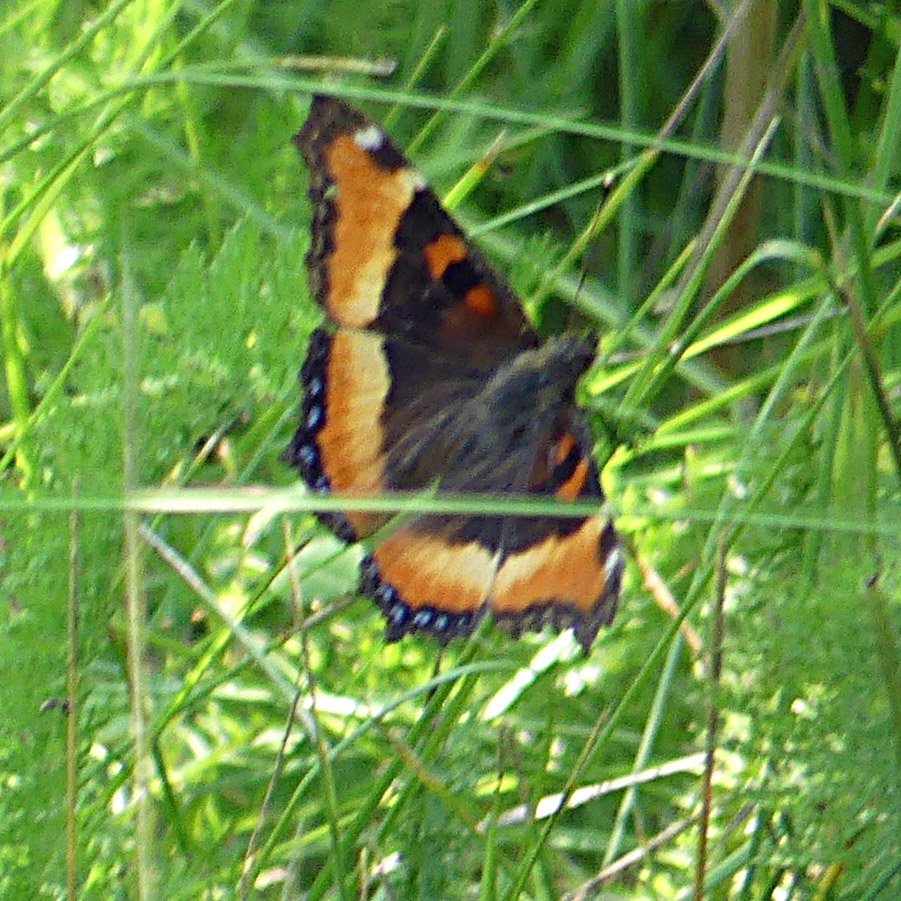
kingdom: Animalia
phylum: Arthropoda
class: Insecta
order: Lepidoptera
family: Nymphalidae
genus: Aglais
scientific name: Aglais milberti
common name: Milbert's Tortoiseshell
